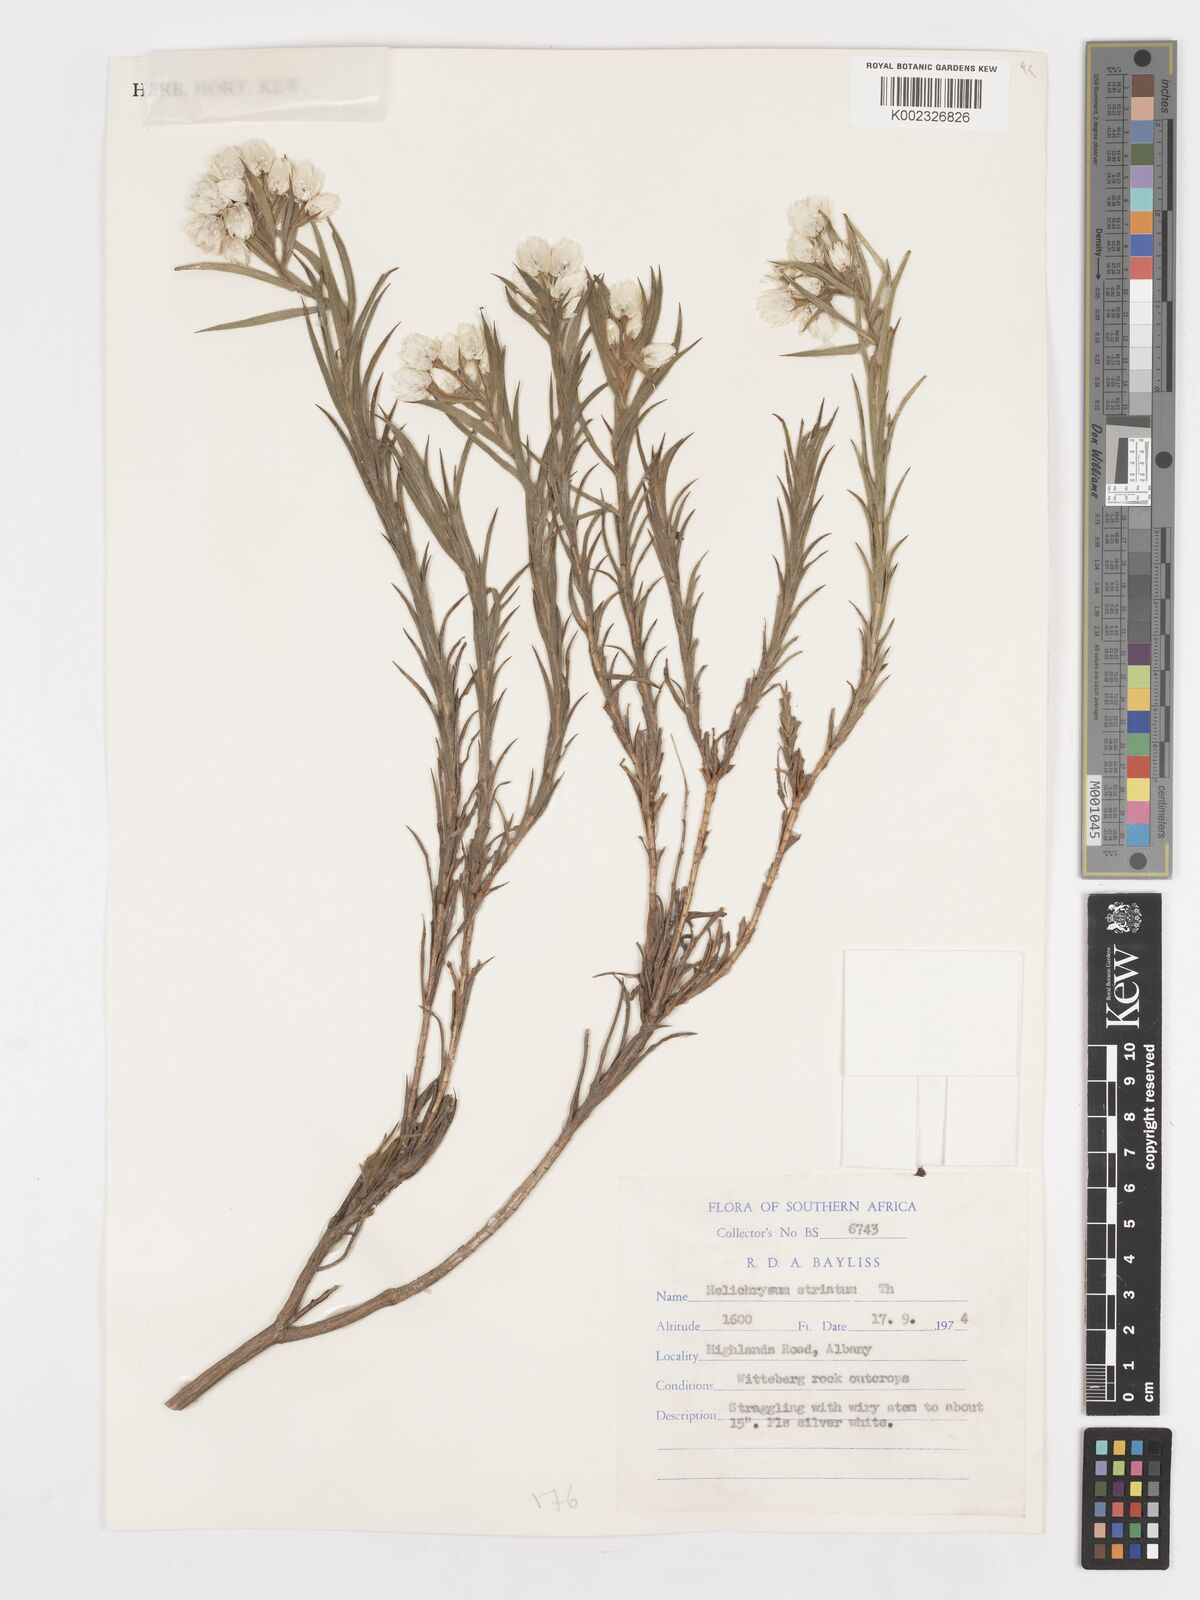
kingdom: Plantae
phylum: Tracheophyta
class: Magnoliopsida
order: Asterales
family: Asteraceae
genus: Achyranthemum
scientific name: Achyranthemum striatum
